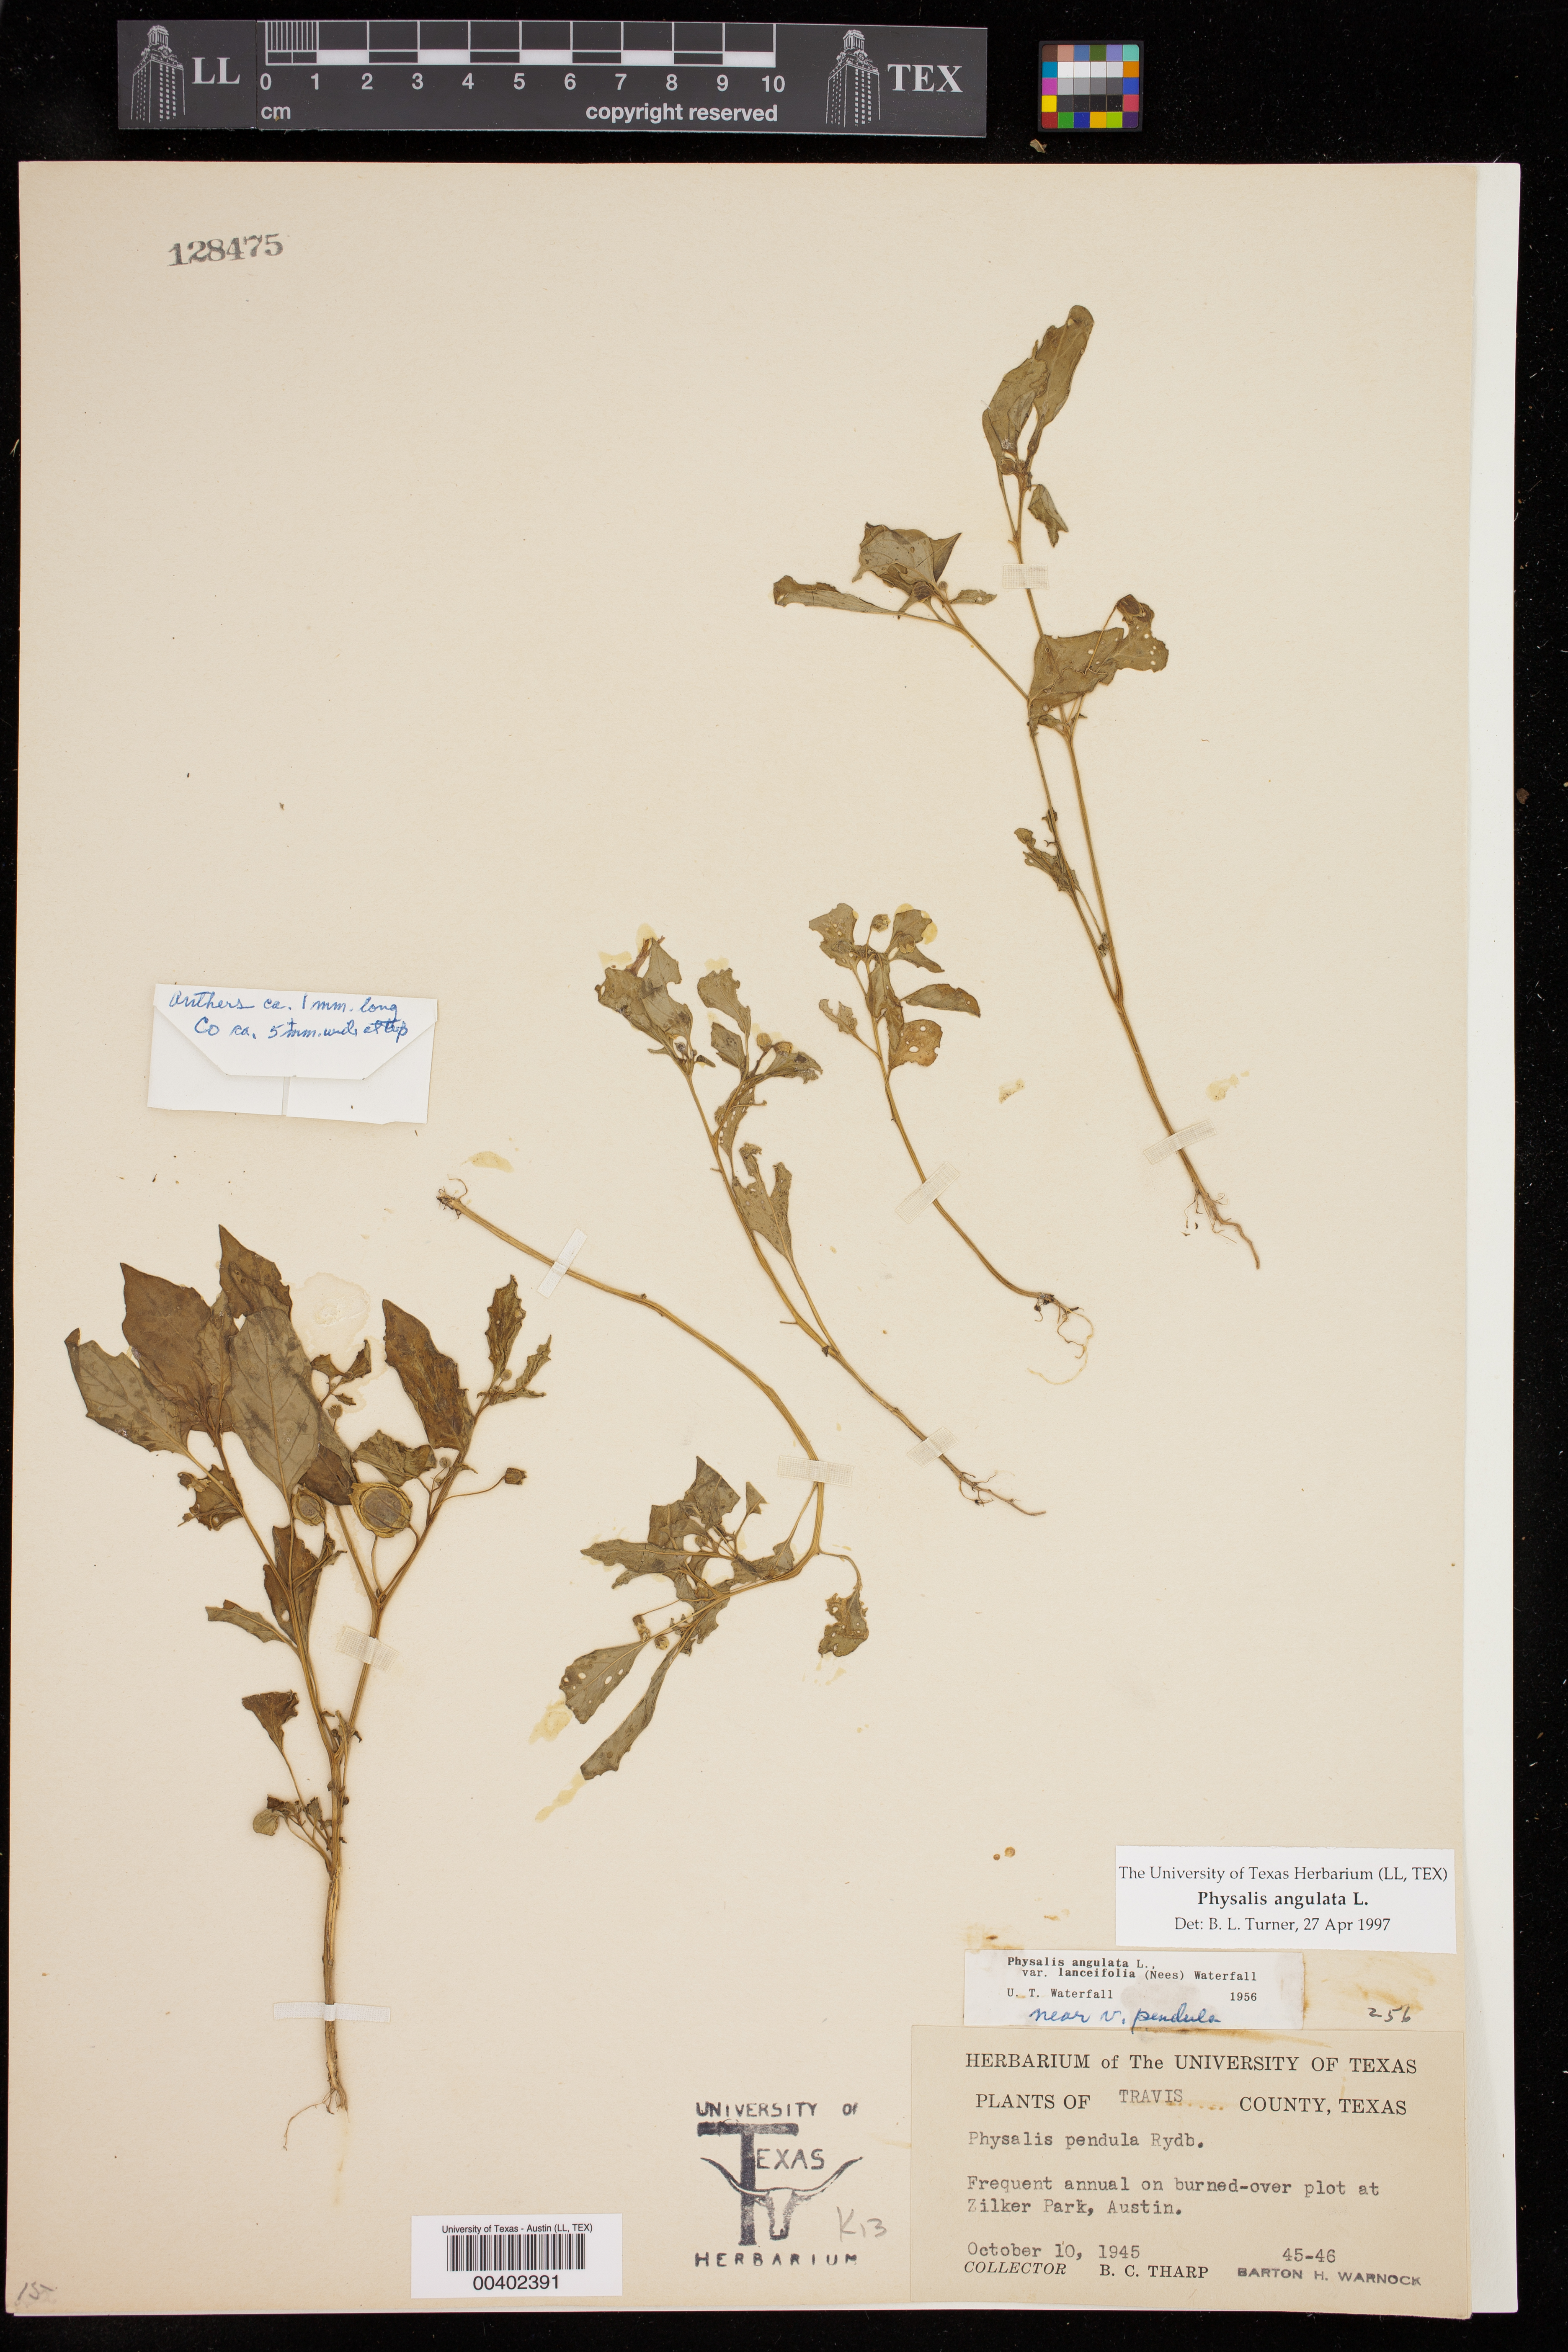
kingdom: Plantae
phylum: Tracheophyta
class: Magnoliopsida
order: Solanales
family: Solanaceae
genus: Physalis
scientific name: Physalis angulata
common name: Angular winter-cherry
